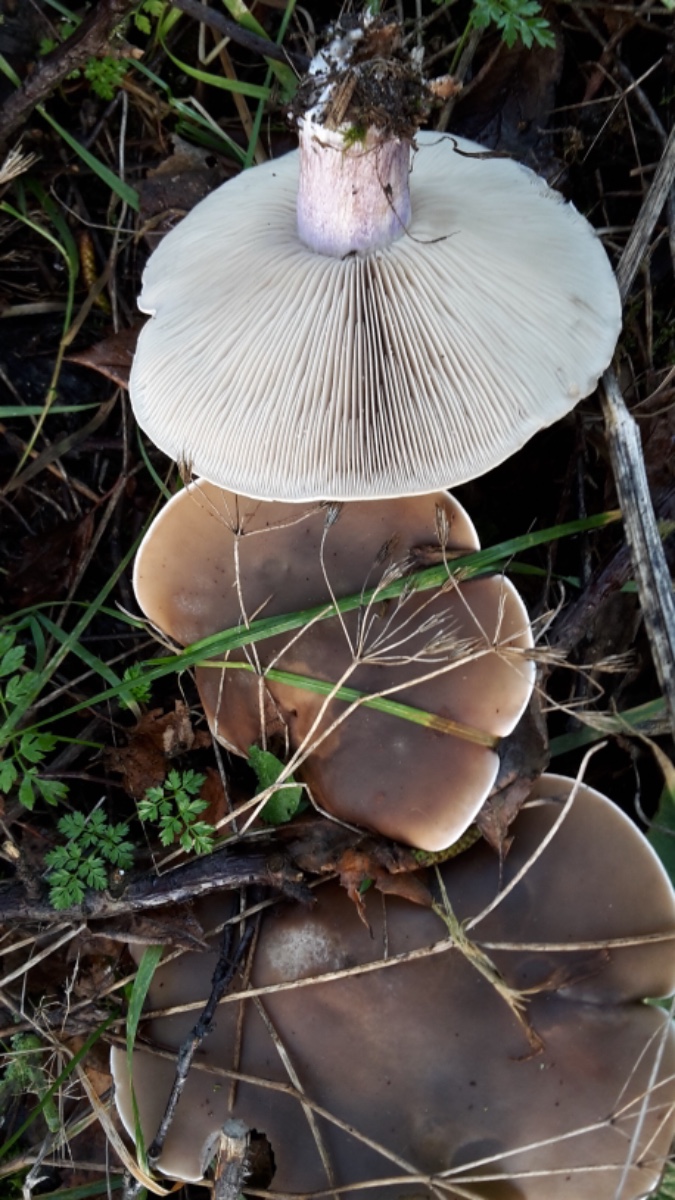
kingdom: Fungi
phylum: Basidiomycota
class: Agaricomycetes
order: Agaricales
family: Tricholomataceae
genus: Lepista
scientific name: Lepista personata
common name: bleg hekseringshat
